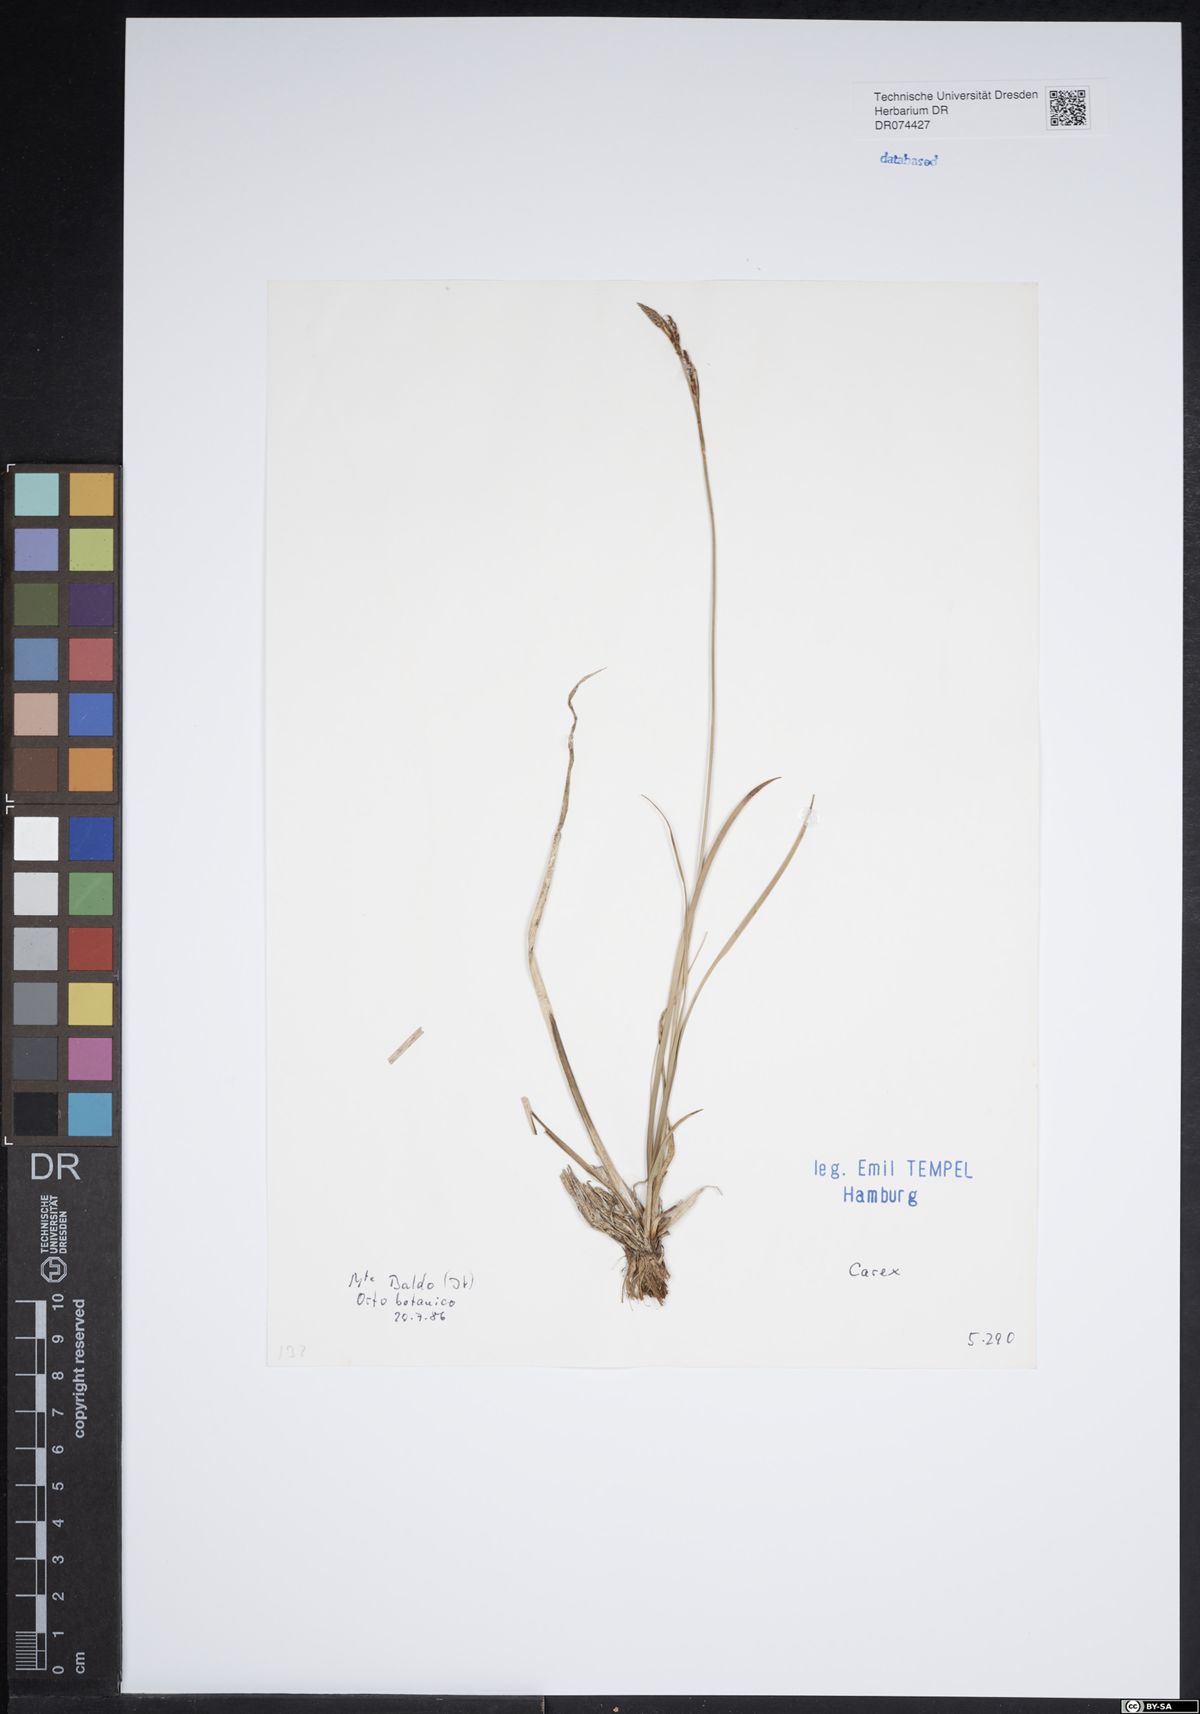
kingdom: Plantae
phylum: Tracheophyta
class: Liliopsida
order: Poales
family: Cyperaceae
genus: Carex
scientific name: Carex
